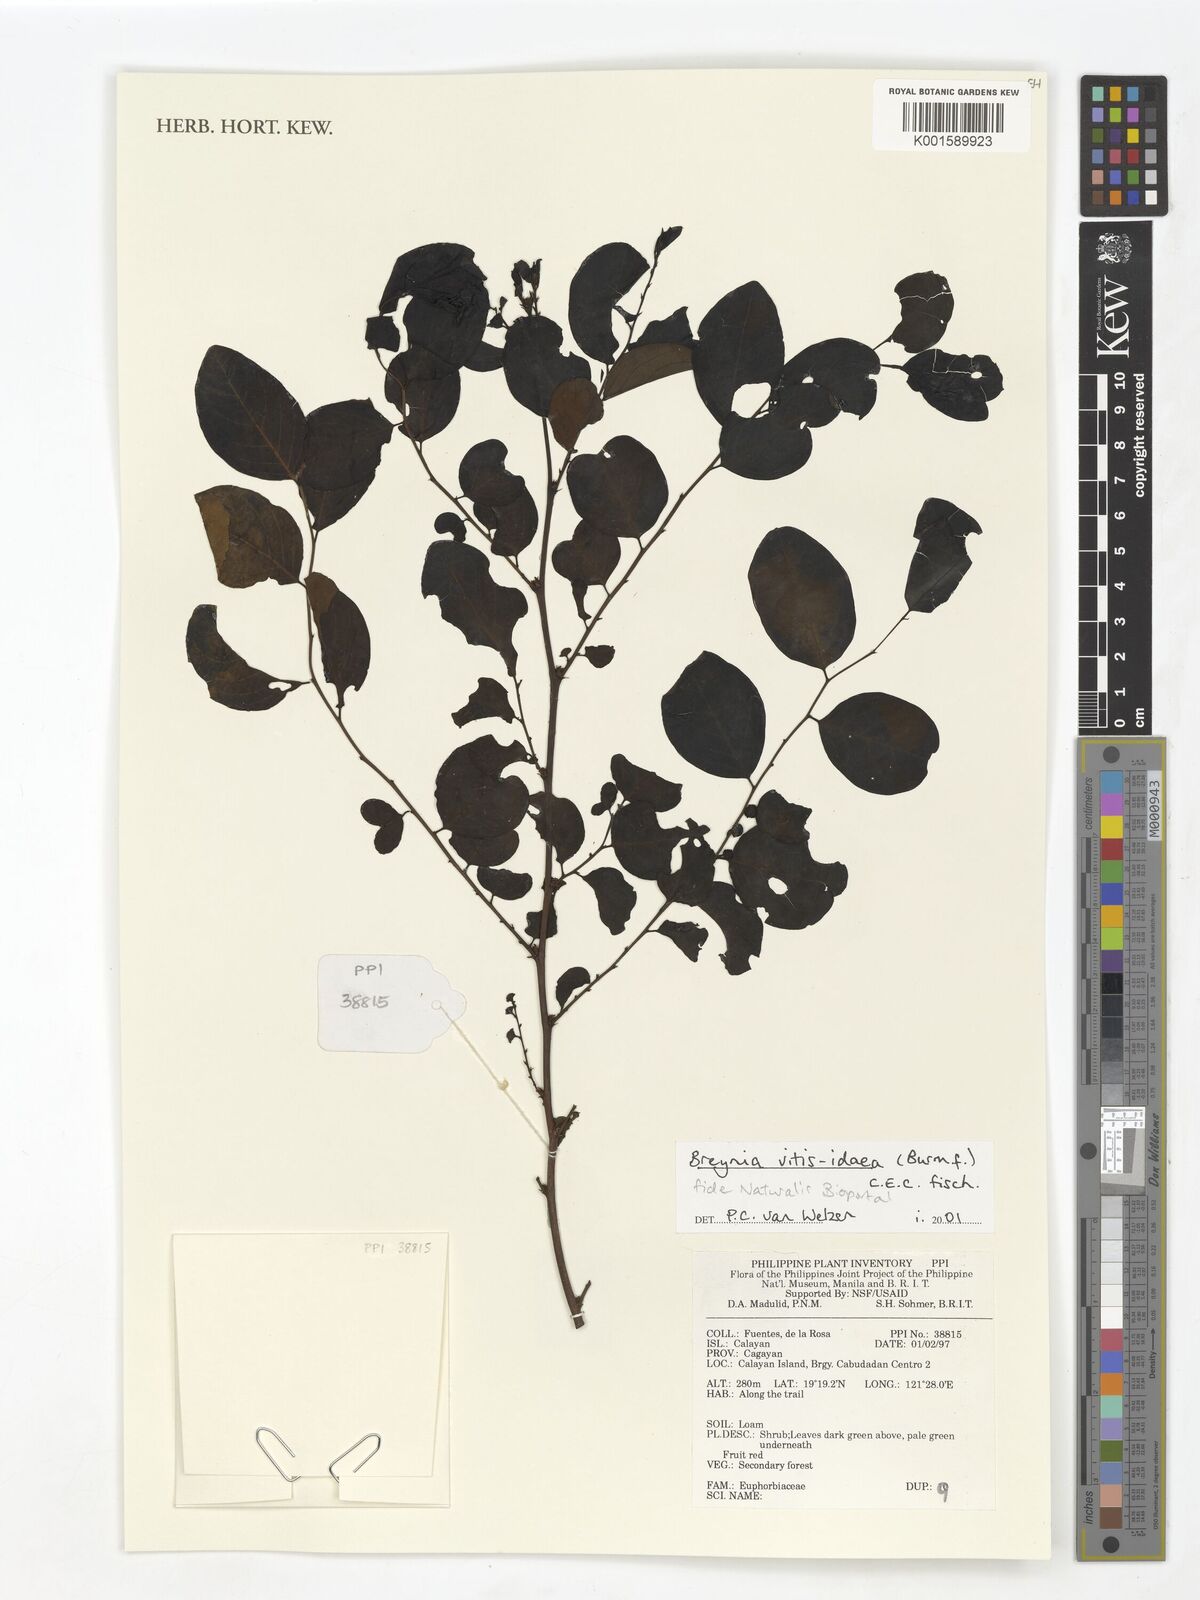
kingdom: Plantae
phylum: Tracheophyta
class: Magnoliopsida
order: Malpighiales
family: Phyllanthaceae
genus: Breynia
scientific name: Breynia vitis-idaea
